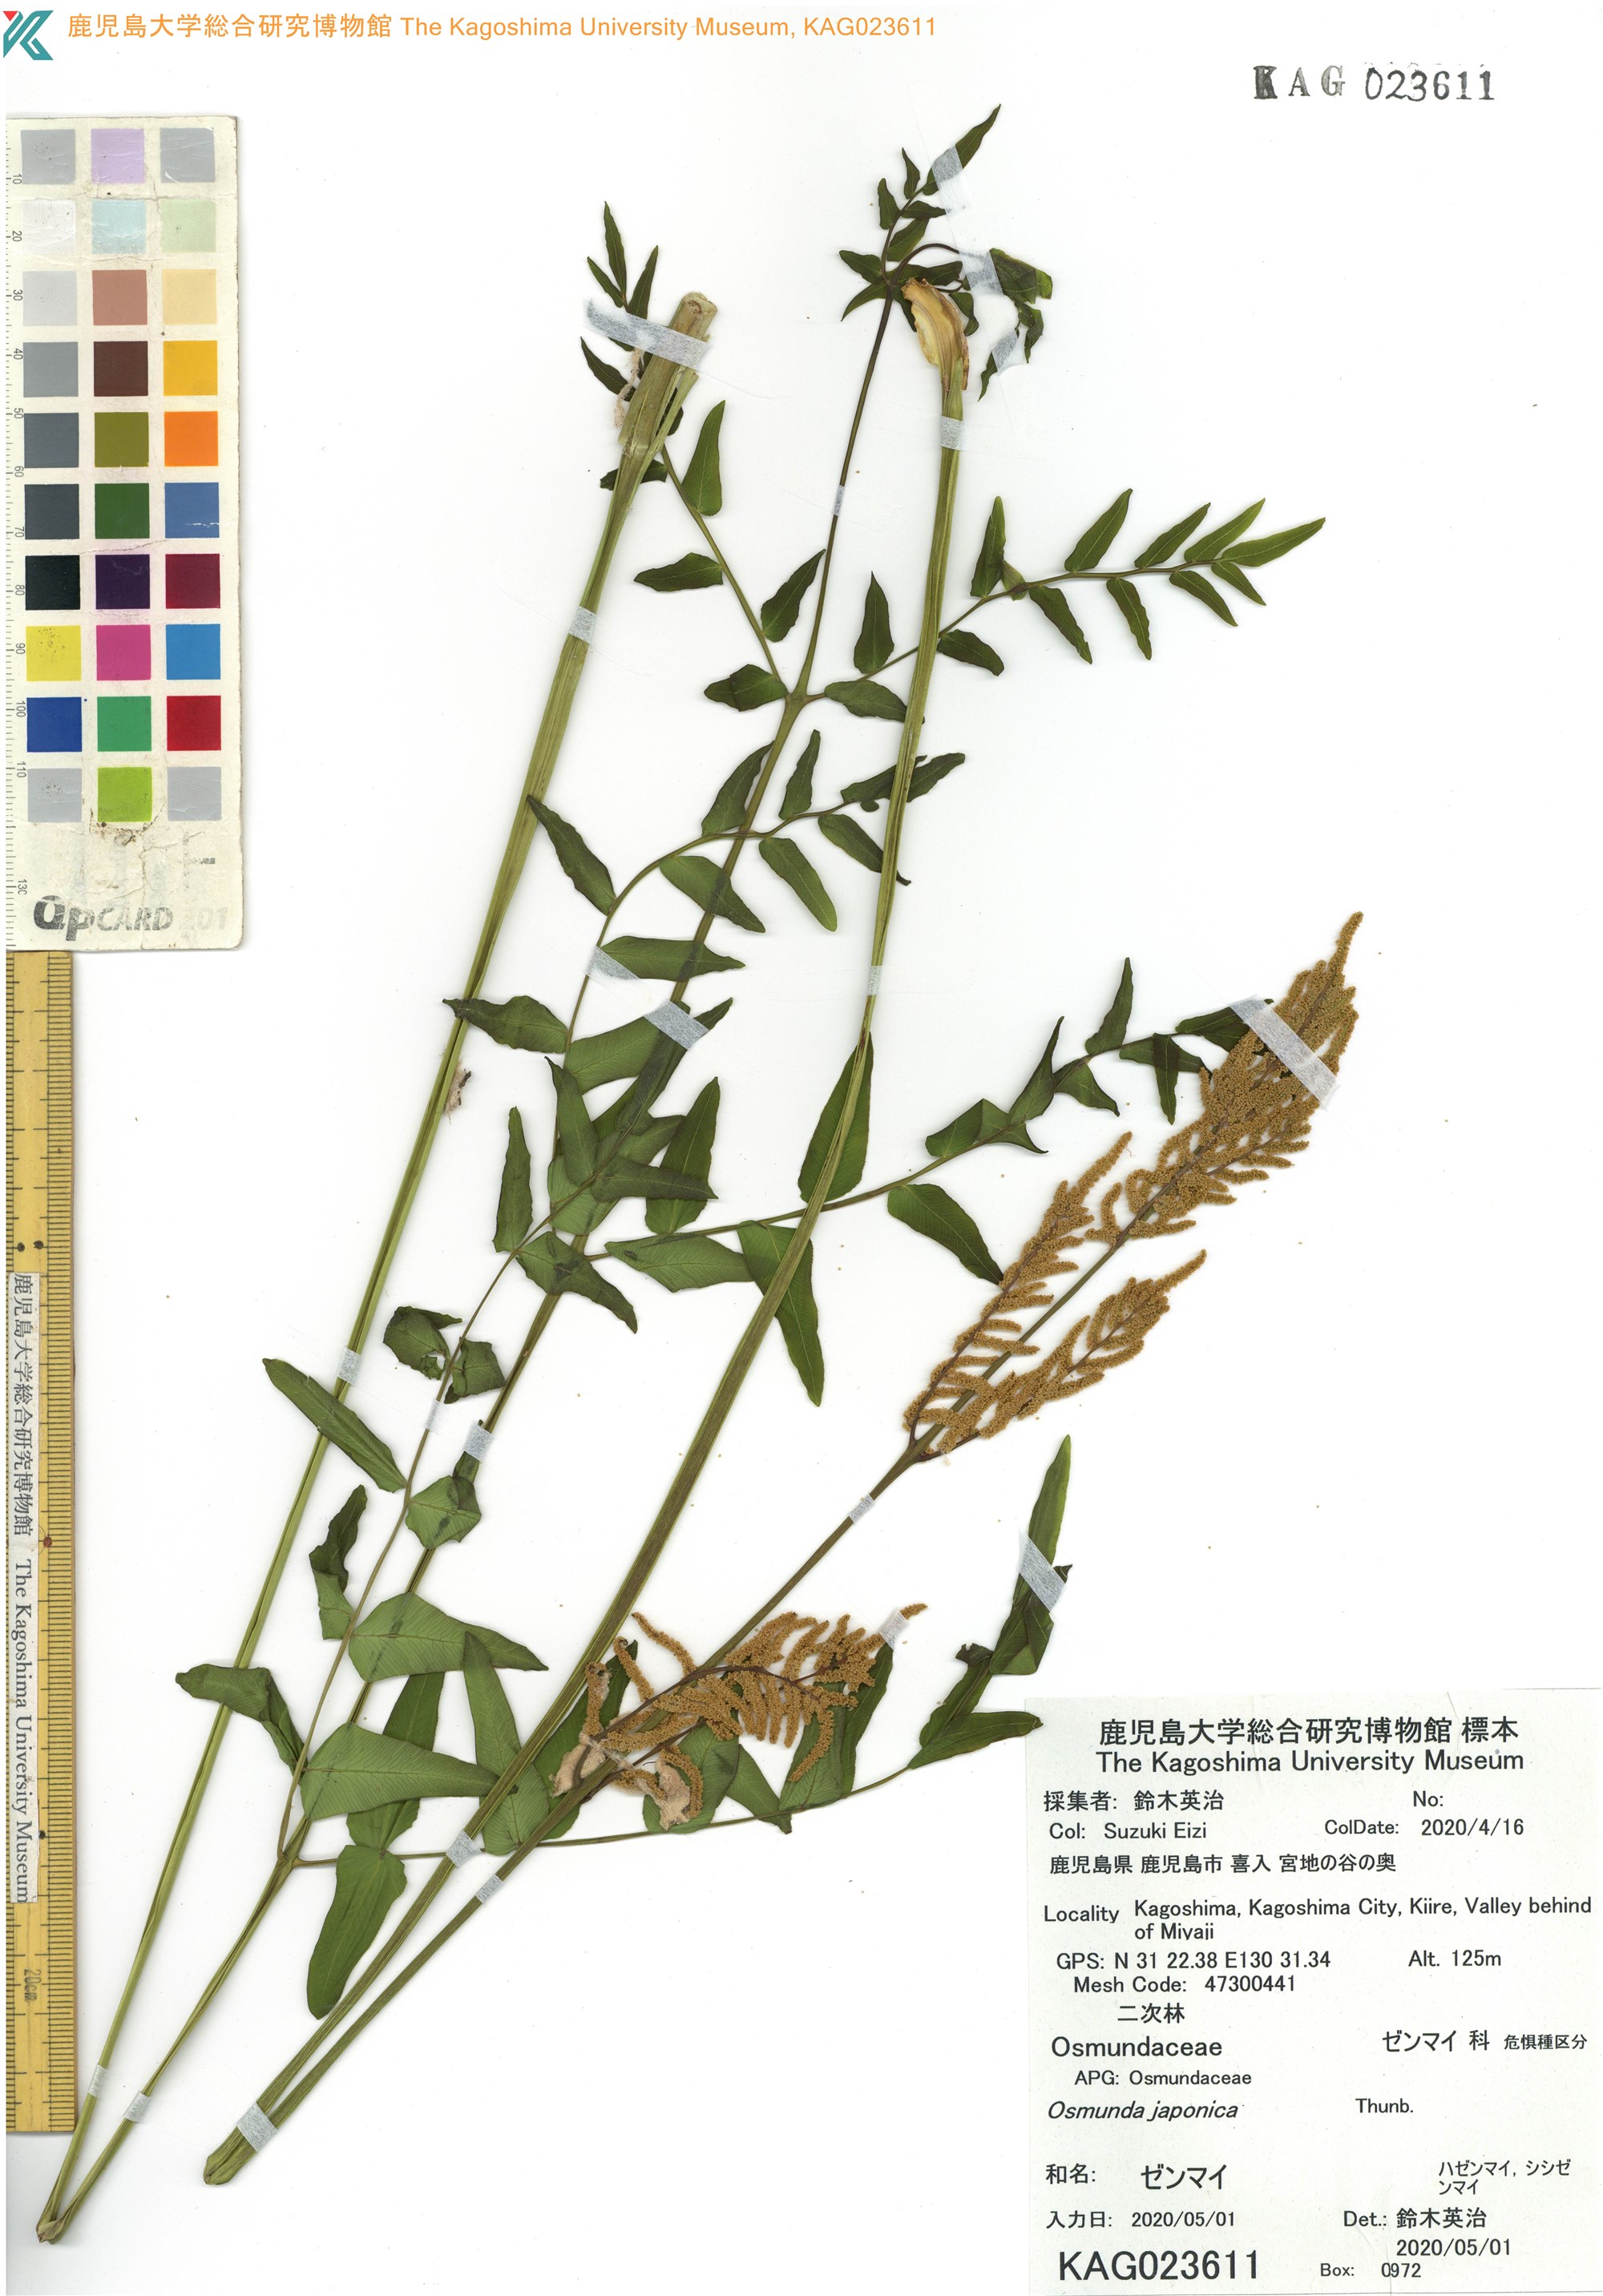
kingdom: Plantae
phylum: Tracheophyta
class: Polypodiopsida
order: Osmundales
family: Osmundaceae
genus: Osmunda
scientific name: Osmunda japonica
